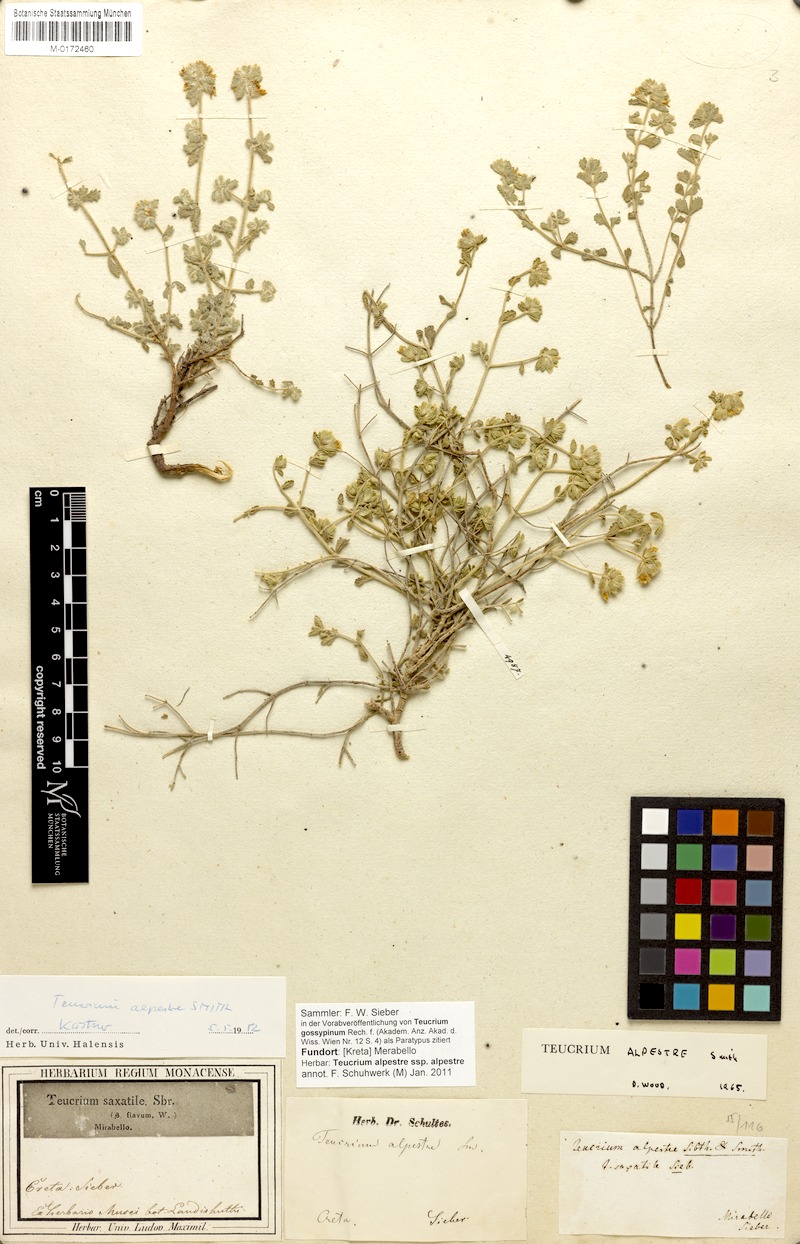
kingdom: Plantae
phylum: Tracheophyta
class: Magnoliopsida
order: Lamiales
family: Lamiaceae
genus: Teucrium
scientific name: Teucrium alpestre
